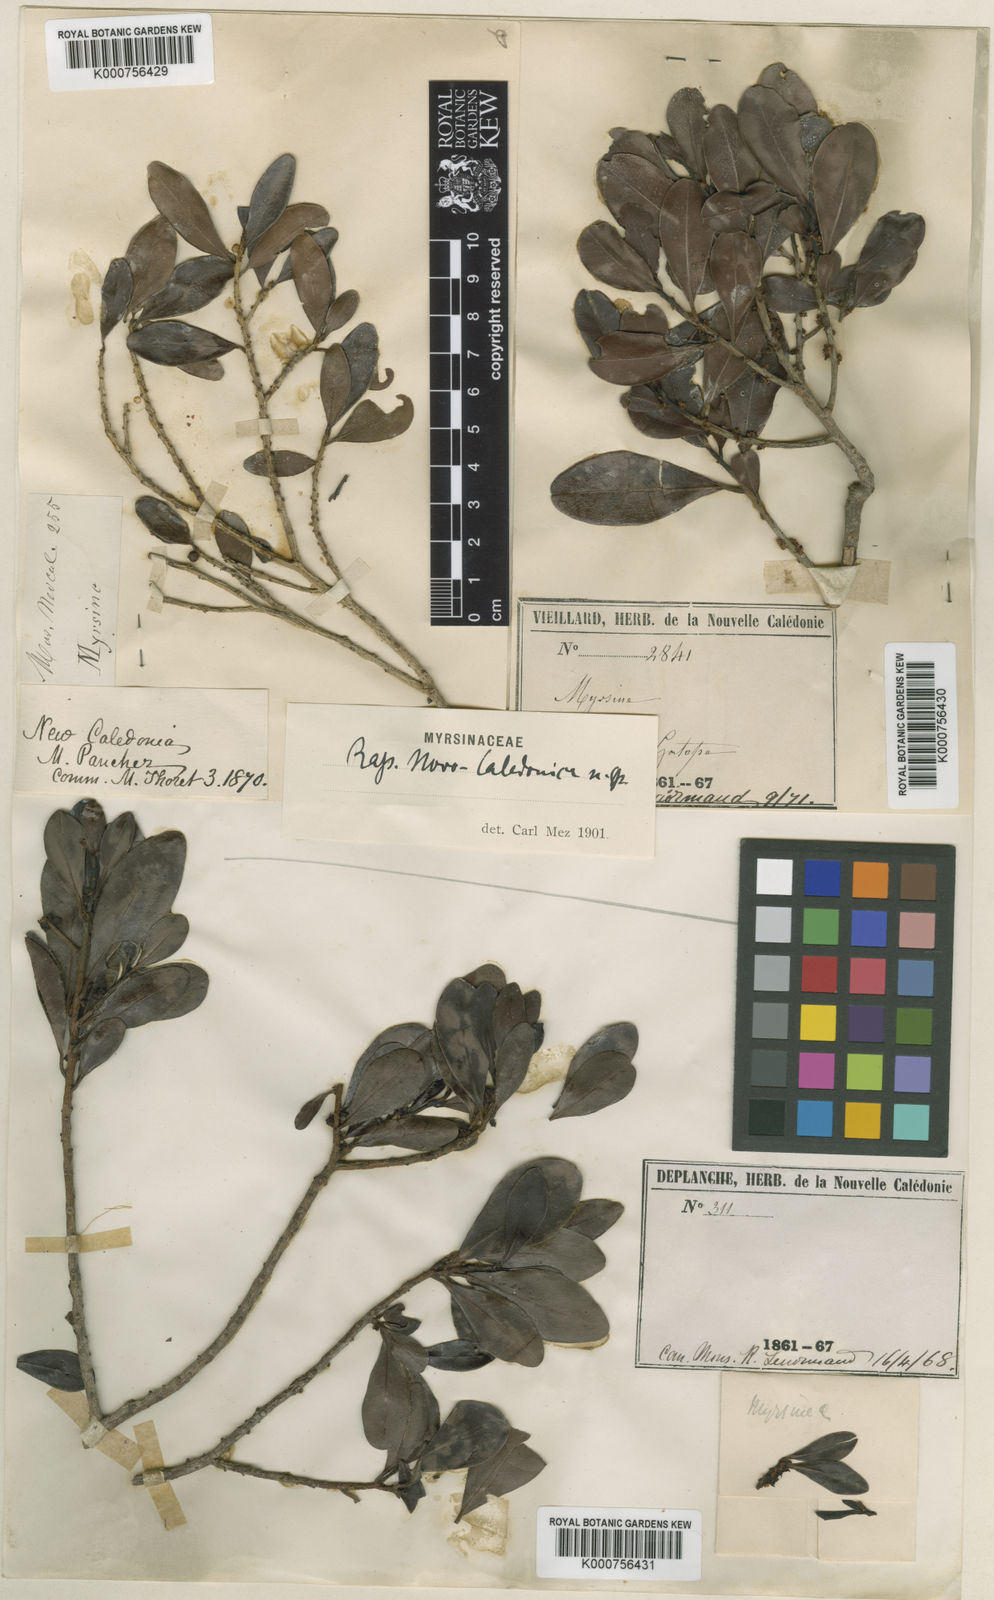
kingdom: Plantae
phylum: Tracheophyta
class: Magnoliopsida
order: Ericales
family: Primulaceae
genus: Myrsine
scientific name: Myrsine novocaledonica
